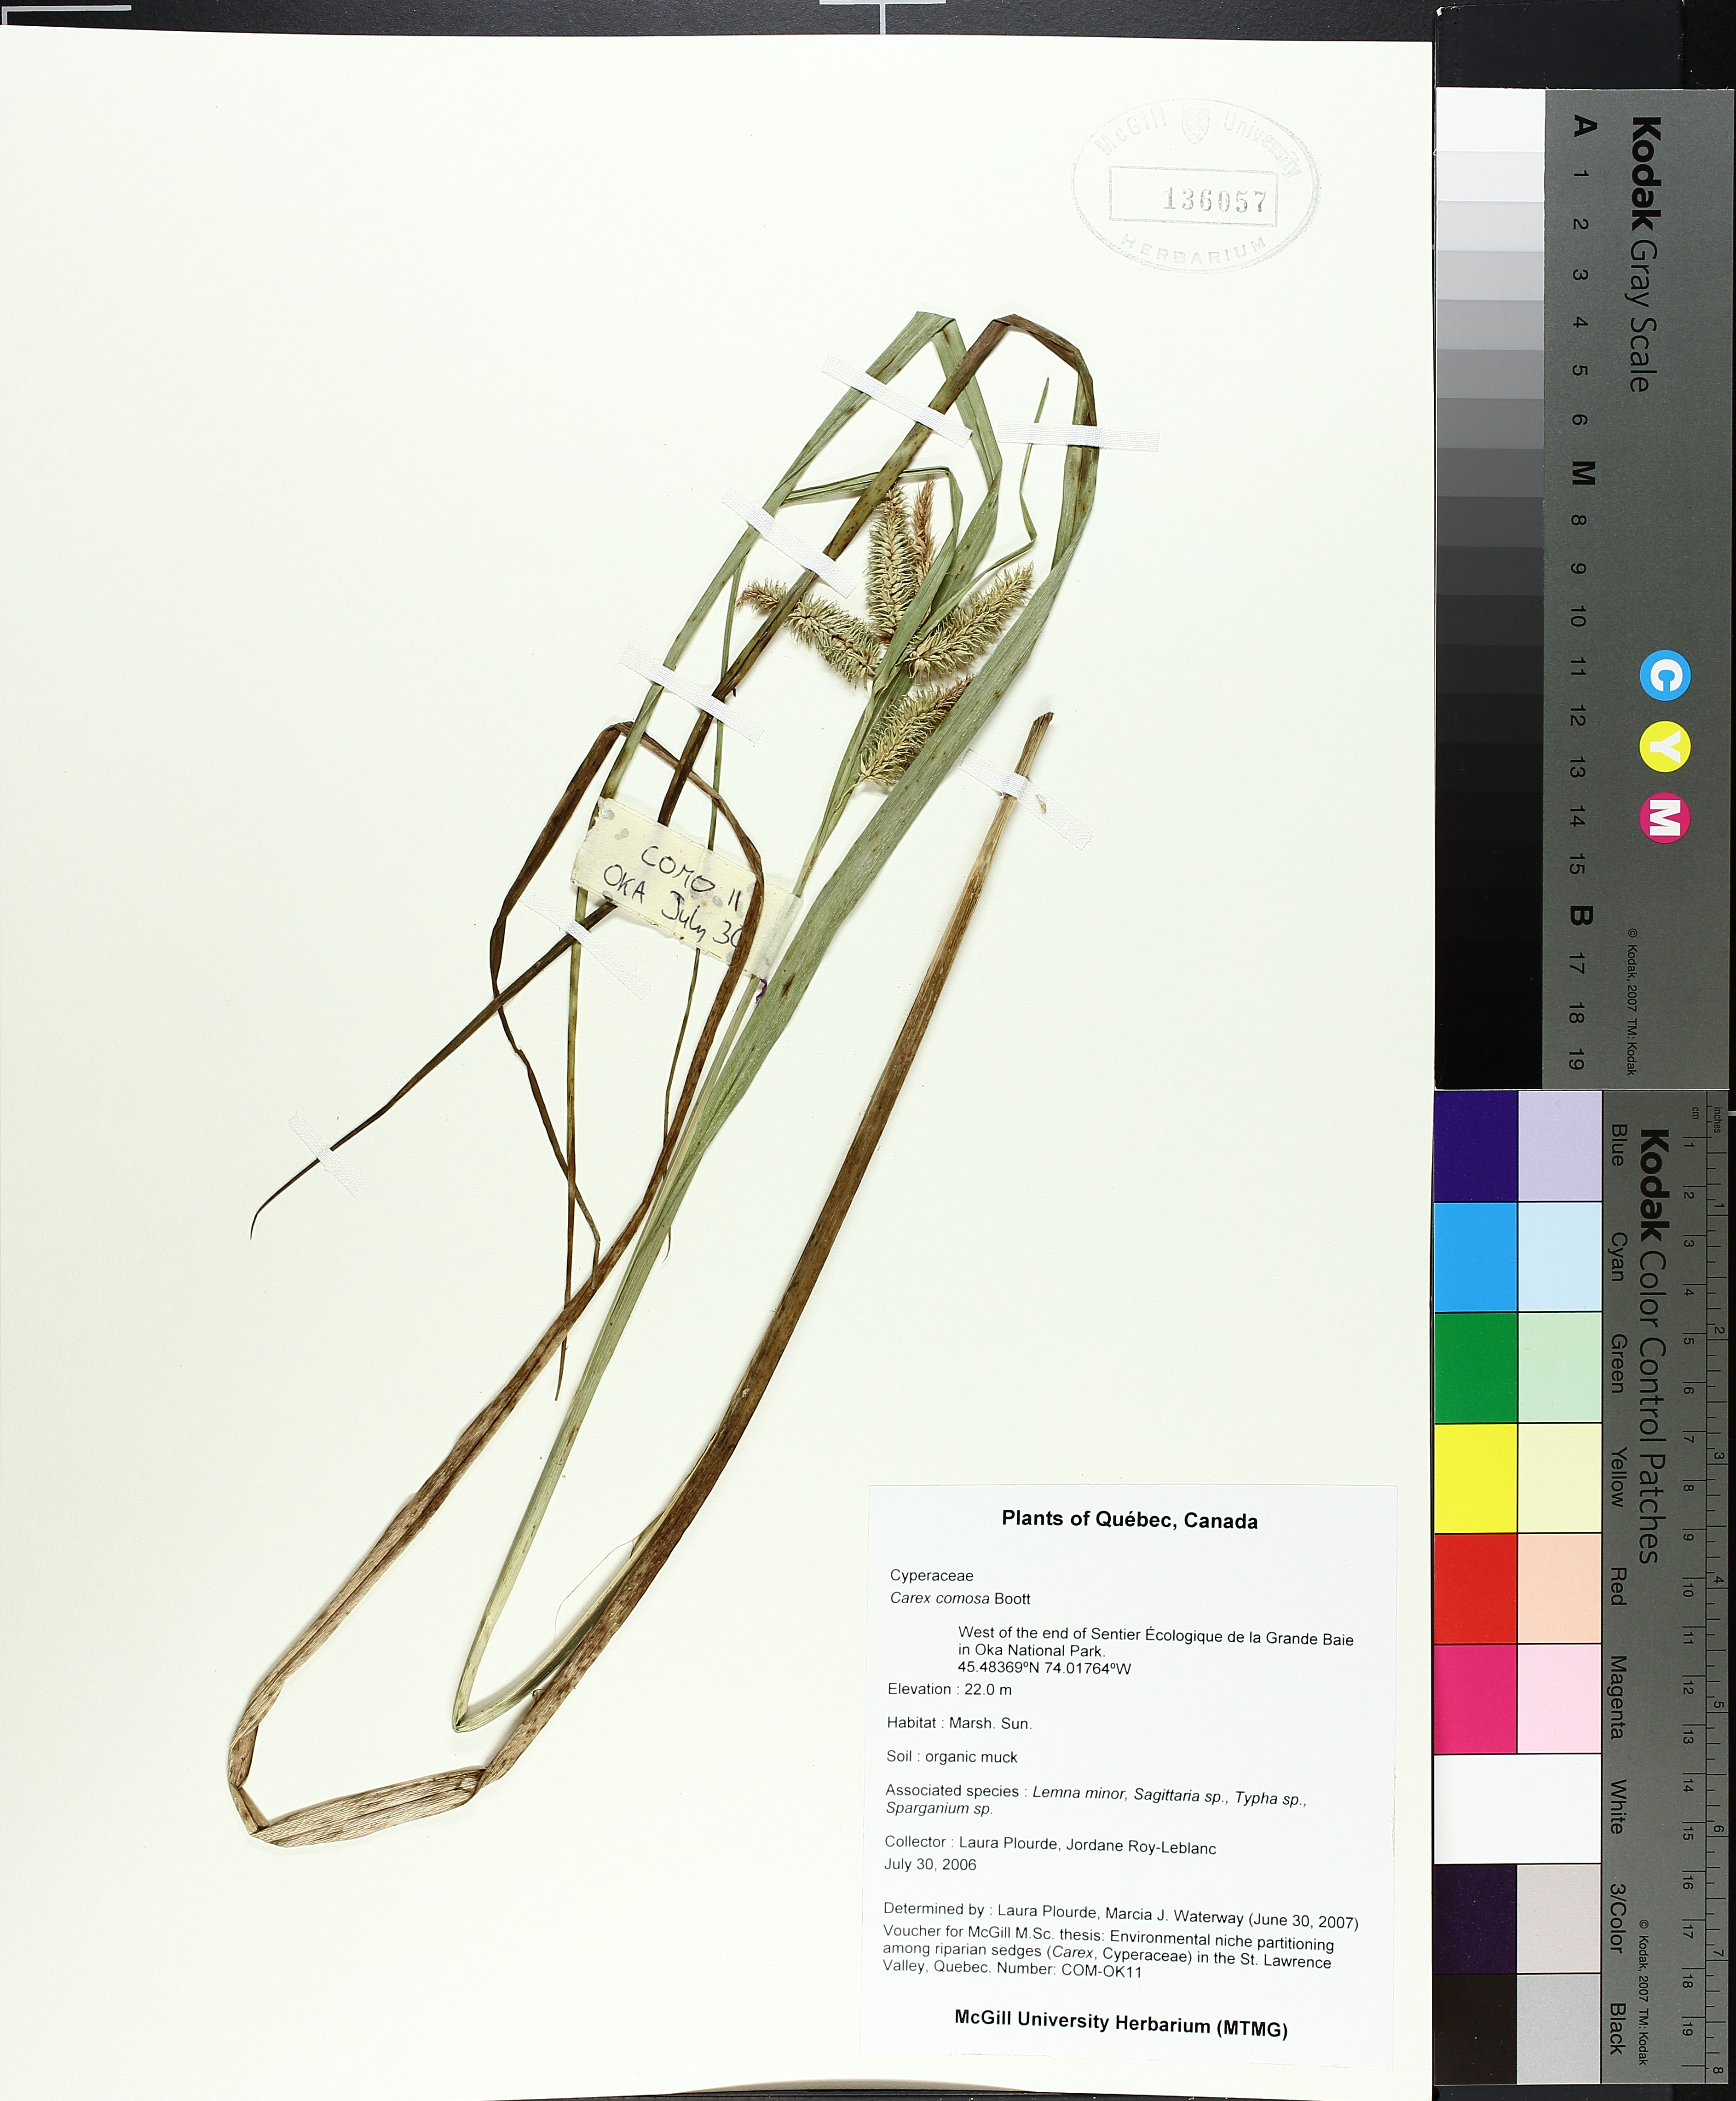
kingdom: Plantae
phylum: Tracheophyta
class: Liliopsida
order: Poales
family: Cyperaceae
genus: Carex
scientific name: Carex comosa
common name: Bristly sedge
